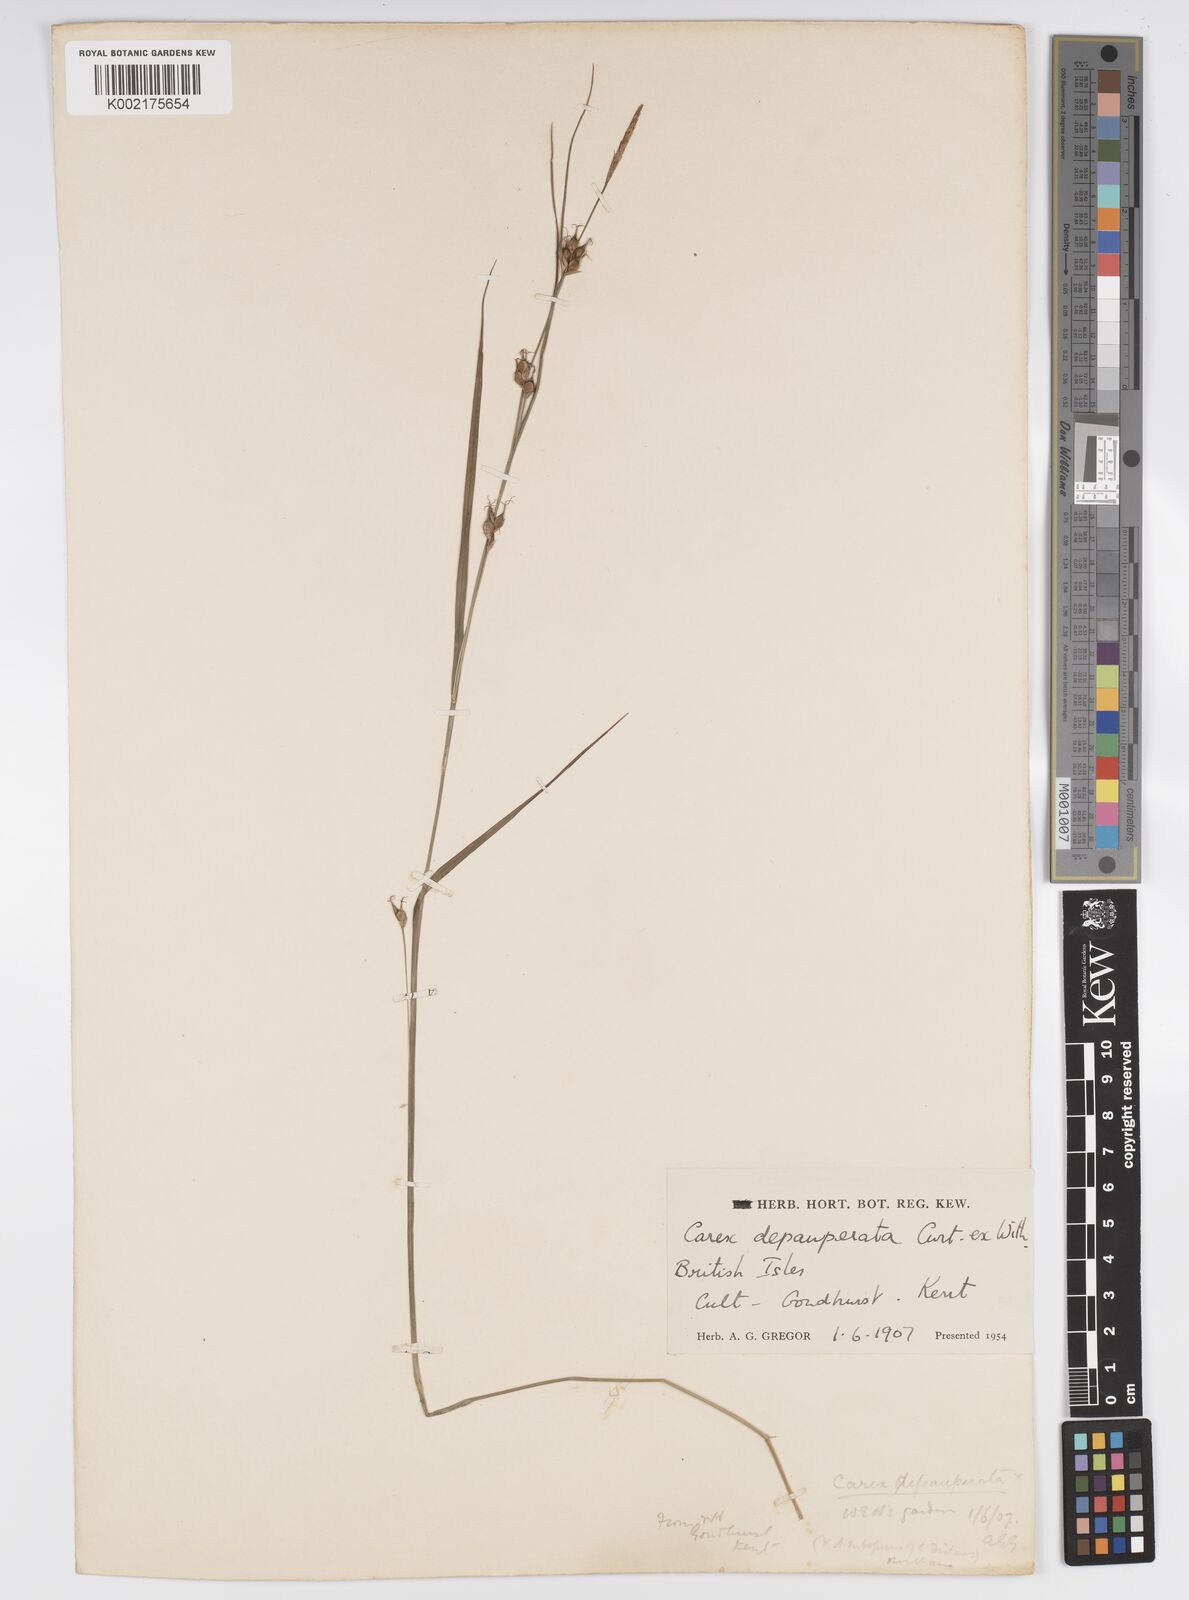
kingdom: Plantae
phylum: Tracheophyta
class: Liliopsida
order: Poales
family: Cyperaceae
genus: Carex
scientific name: Carex depauperata
